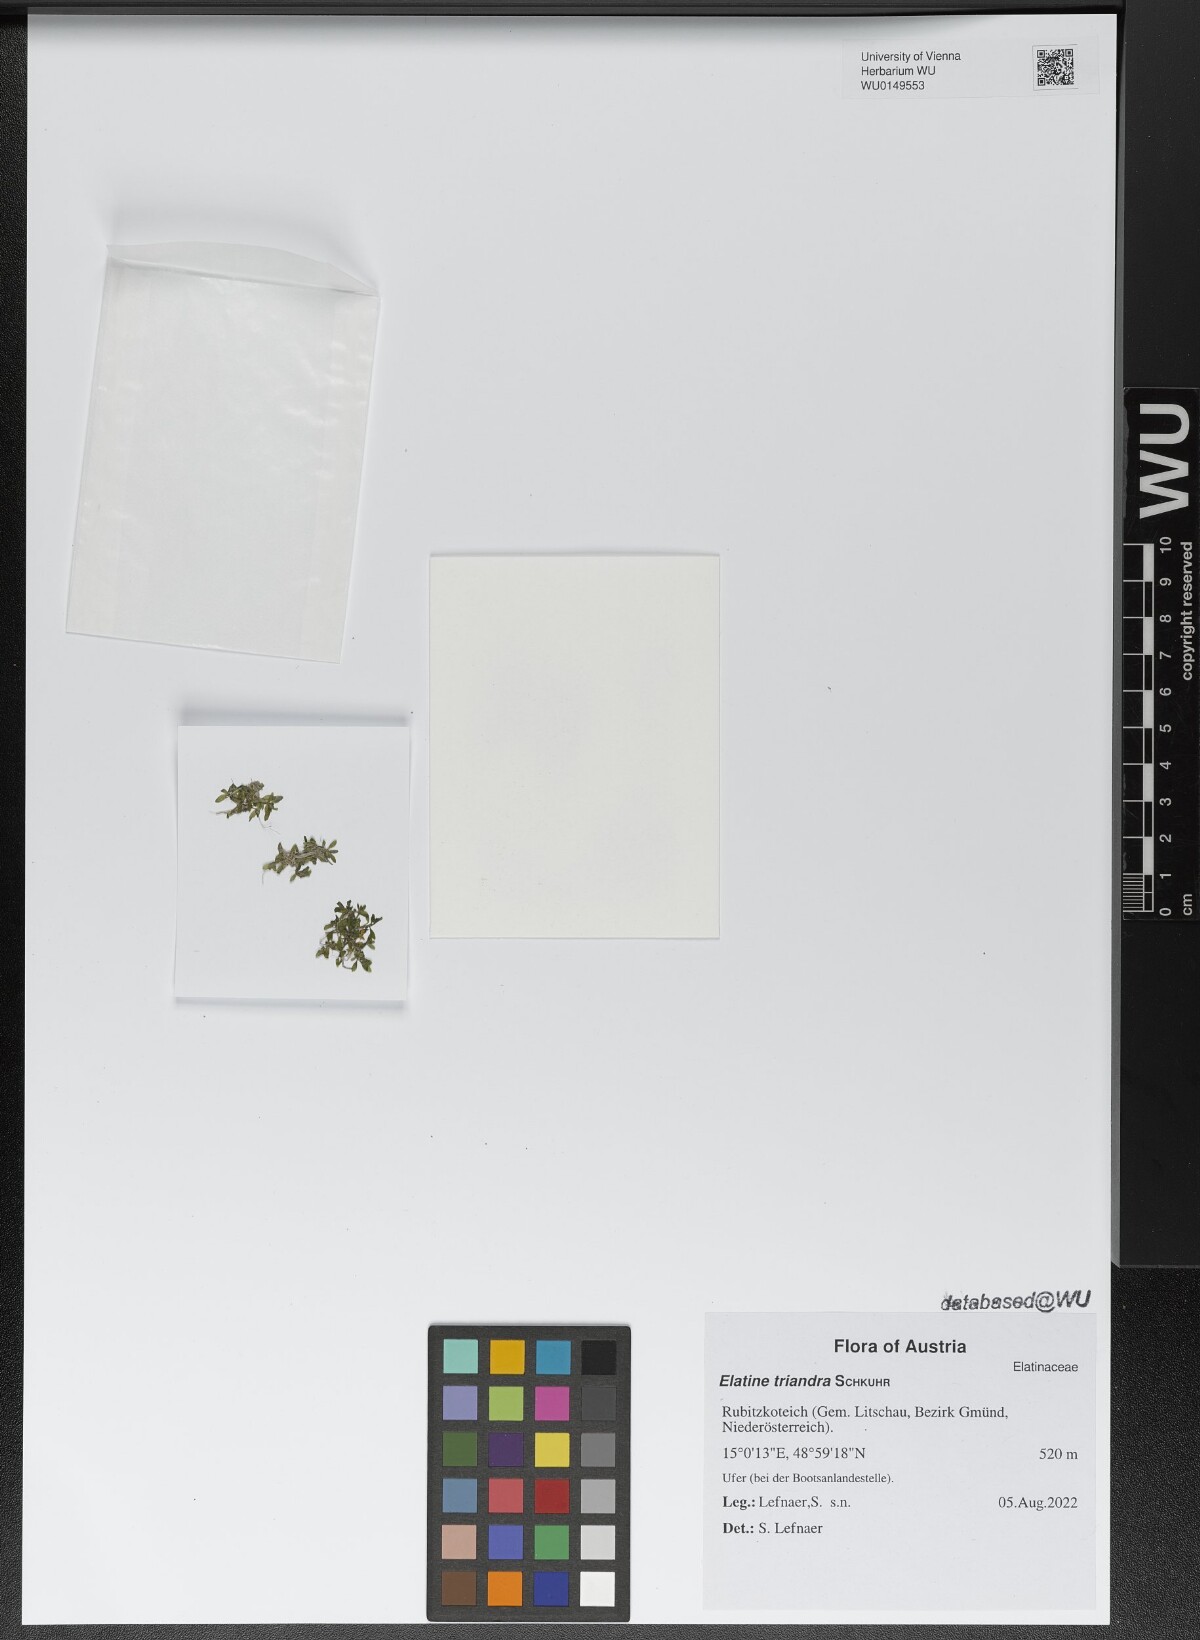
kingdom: Plantae
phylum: Tracheophyta
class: Magnoliopsida
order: Malpighiales
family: Elatinaceae
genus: Elatine
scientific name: Elatine triandra
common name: Three-stamened waterwort
